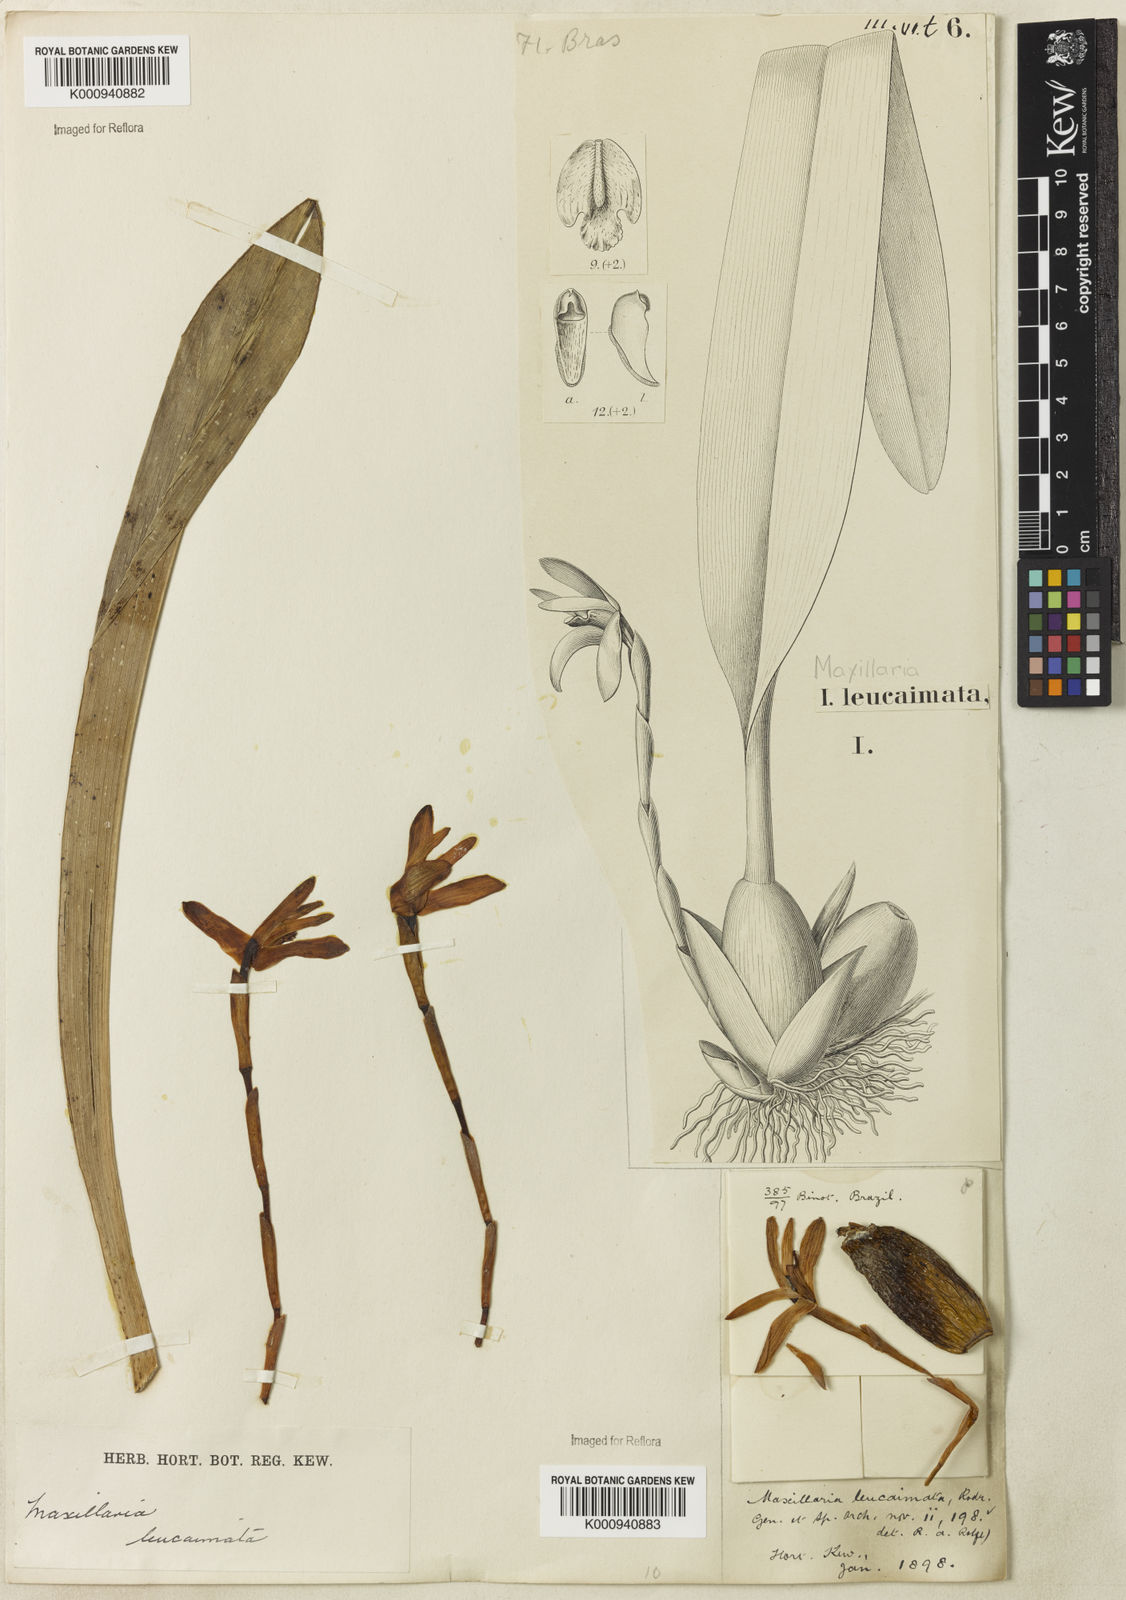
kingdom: Plantae
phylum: Tracheophyta
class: Liliopsida
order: Asparagales
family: Orchidaceae
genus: Maxillaria
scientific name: Maxillaria leucaimata
